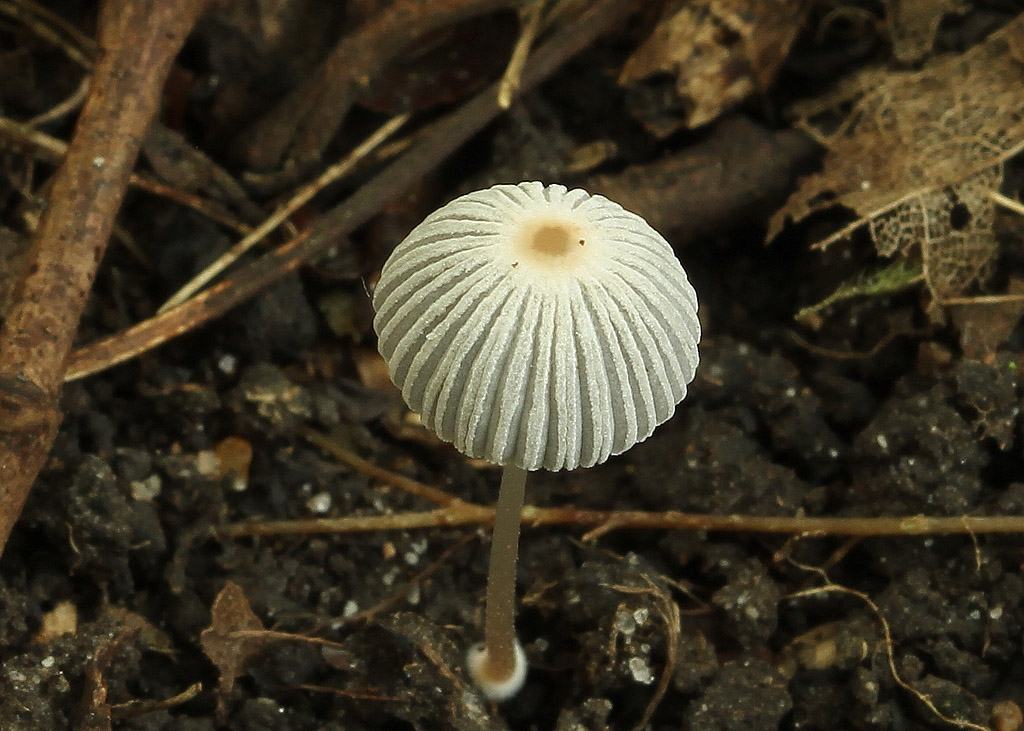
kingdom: Fungi
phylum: Basidiomycota
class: Agaricomycetes
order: Agaricales
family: Psathyrellaceae
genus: Parasola
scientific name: Parasola kuehneri
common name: skygge-hjulhat
